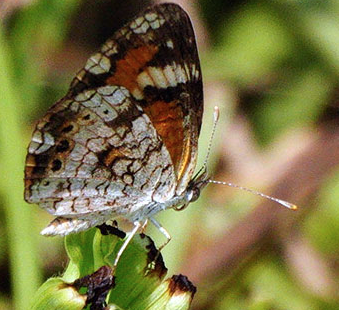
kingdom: Animalia
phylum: Arthropoda
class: Insecta
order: Lepidoptera
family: Nymphalidae
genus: Phyciodes
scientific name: Phyciodes phaon
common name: Phaon Crescent
